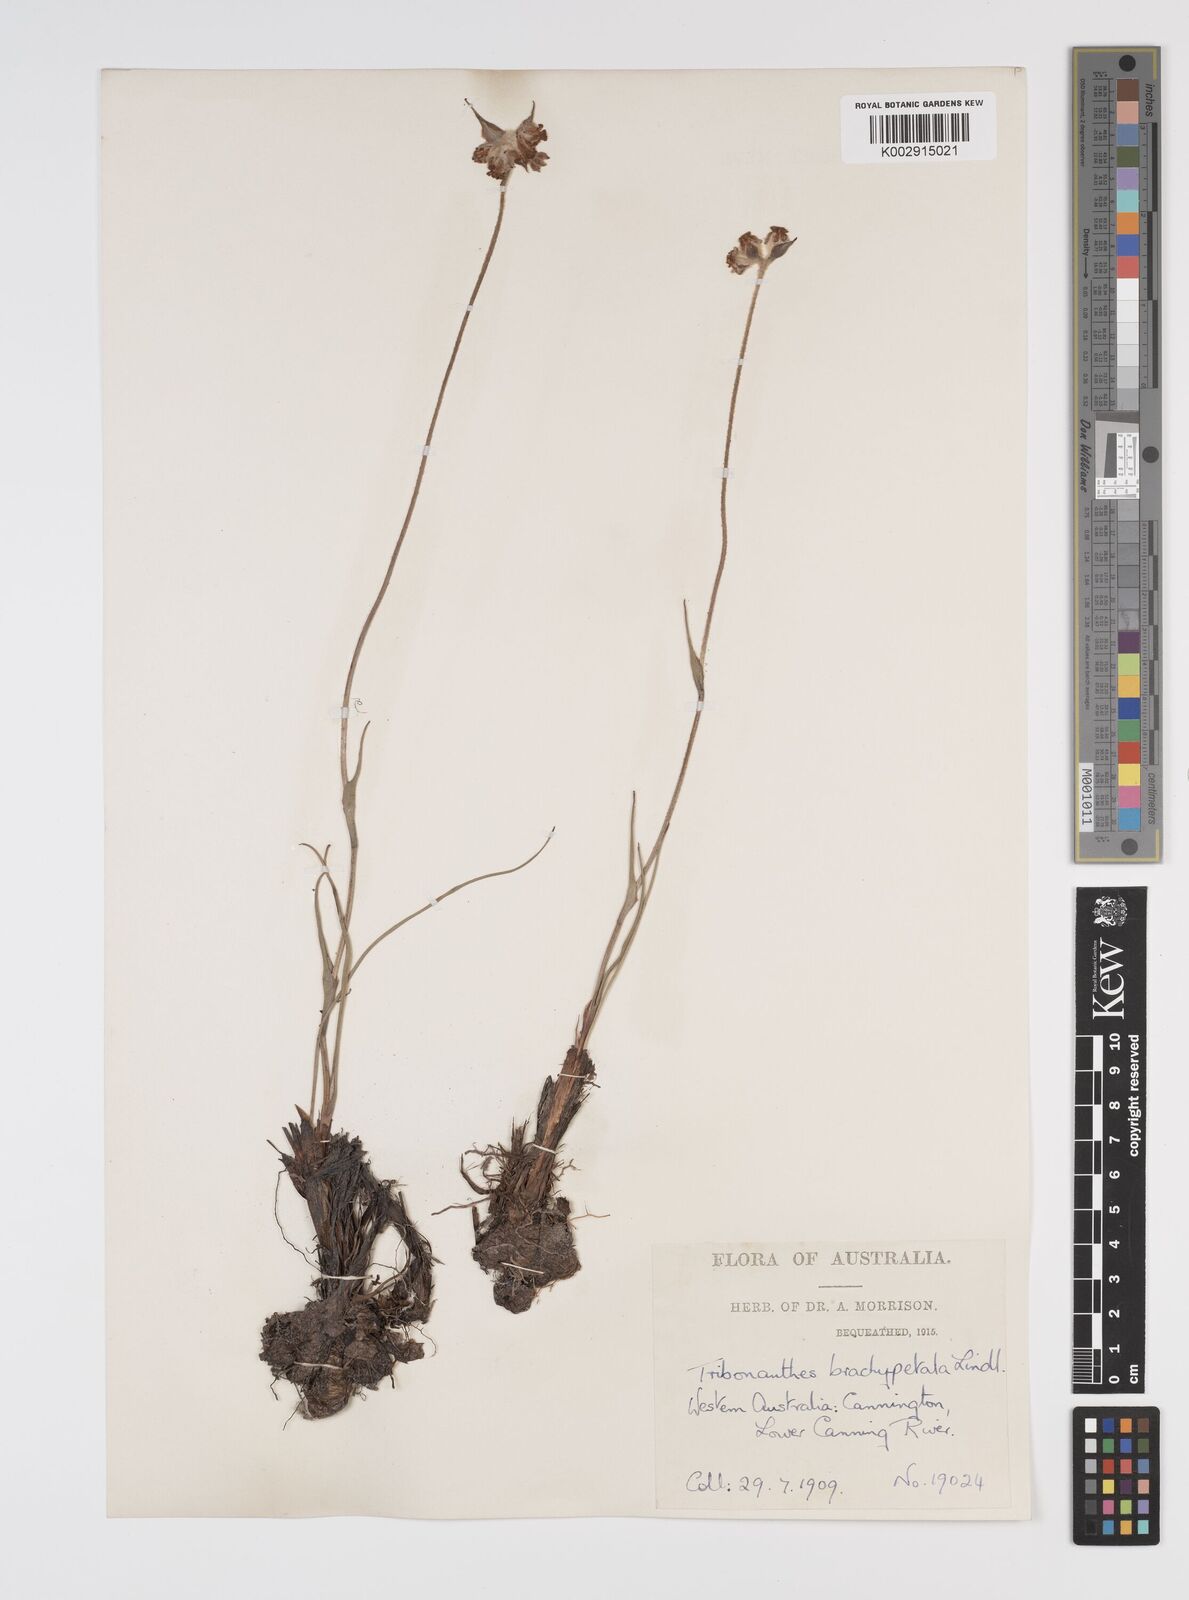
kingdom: Plantae
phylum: Tracheophyta
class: Liliopsida
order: Commelinales
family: Haemodoraceae
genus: Tribonanthes
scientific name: Tribonanthes brachypetala
